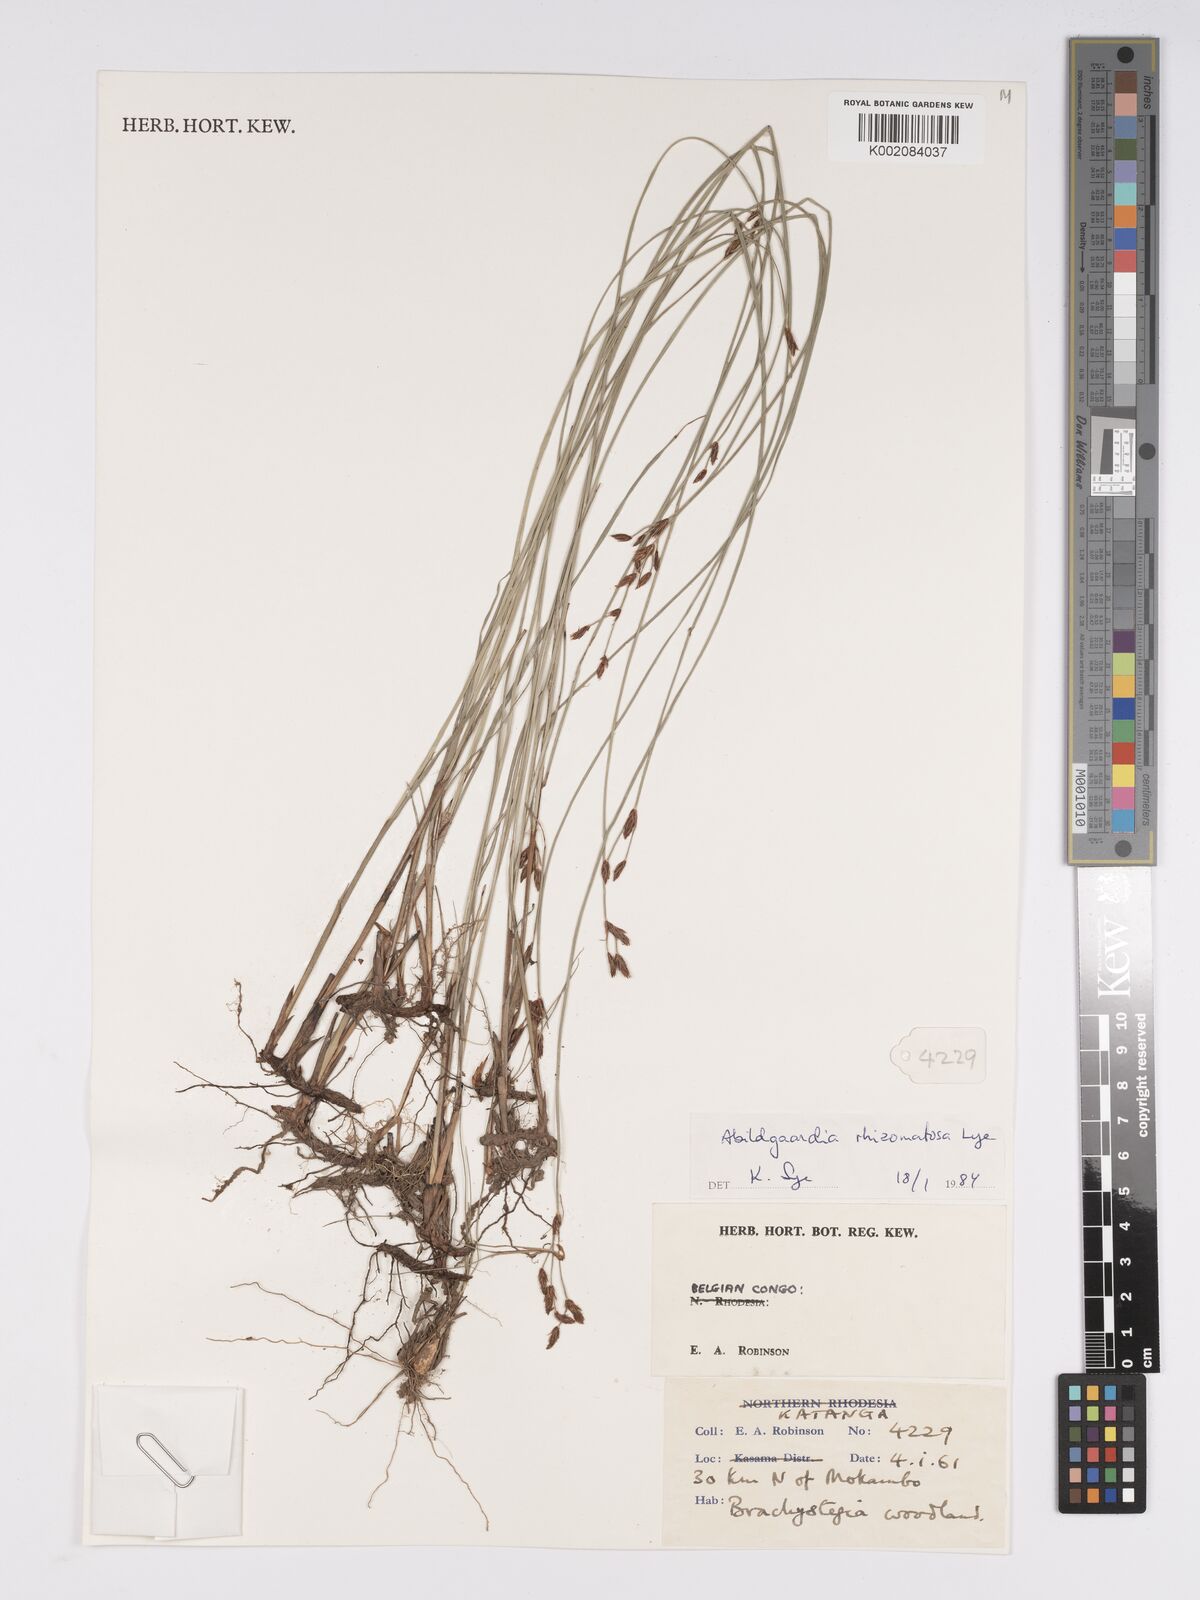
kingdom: Plantae
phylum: Tracheophyta
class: Liliopsida
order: Poales
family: Cyperaceae
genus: Bulbostylis
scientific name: Bulbostylis rhizomatosa
